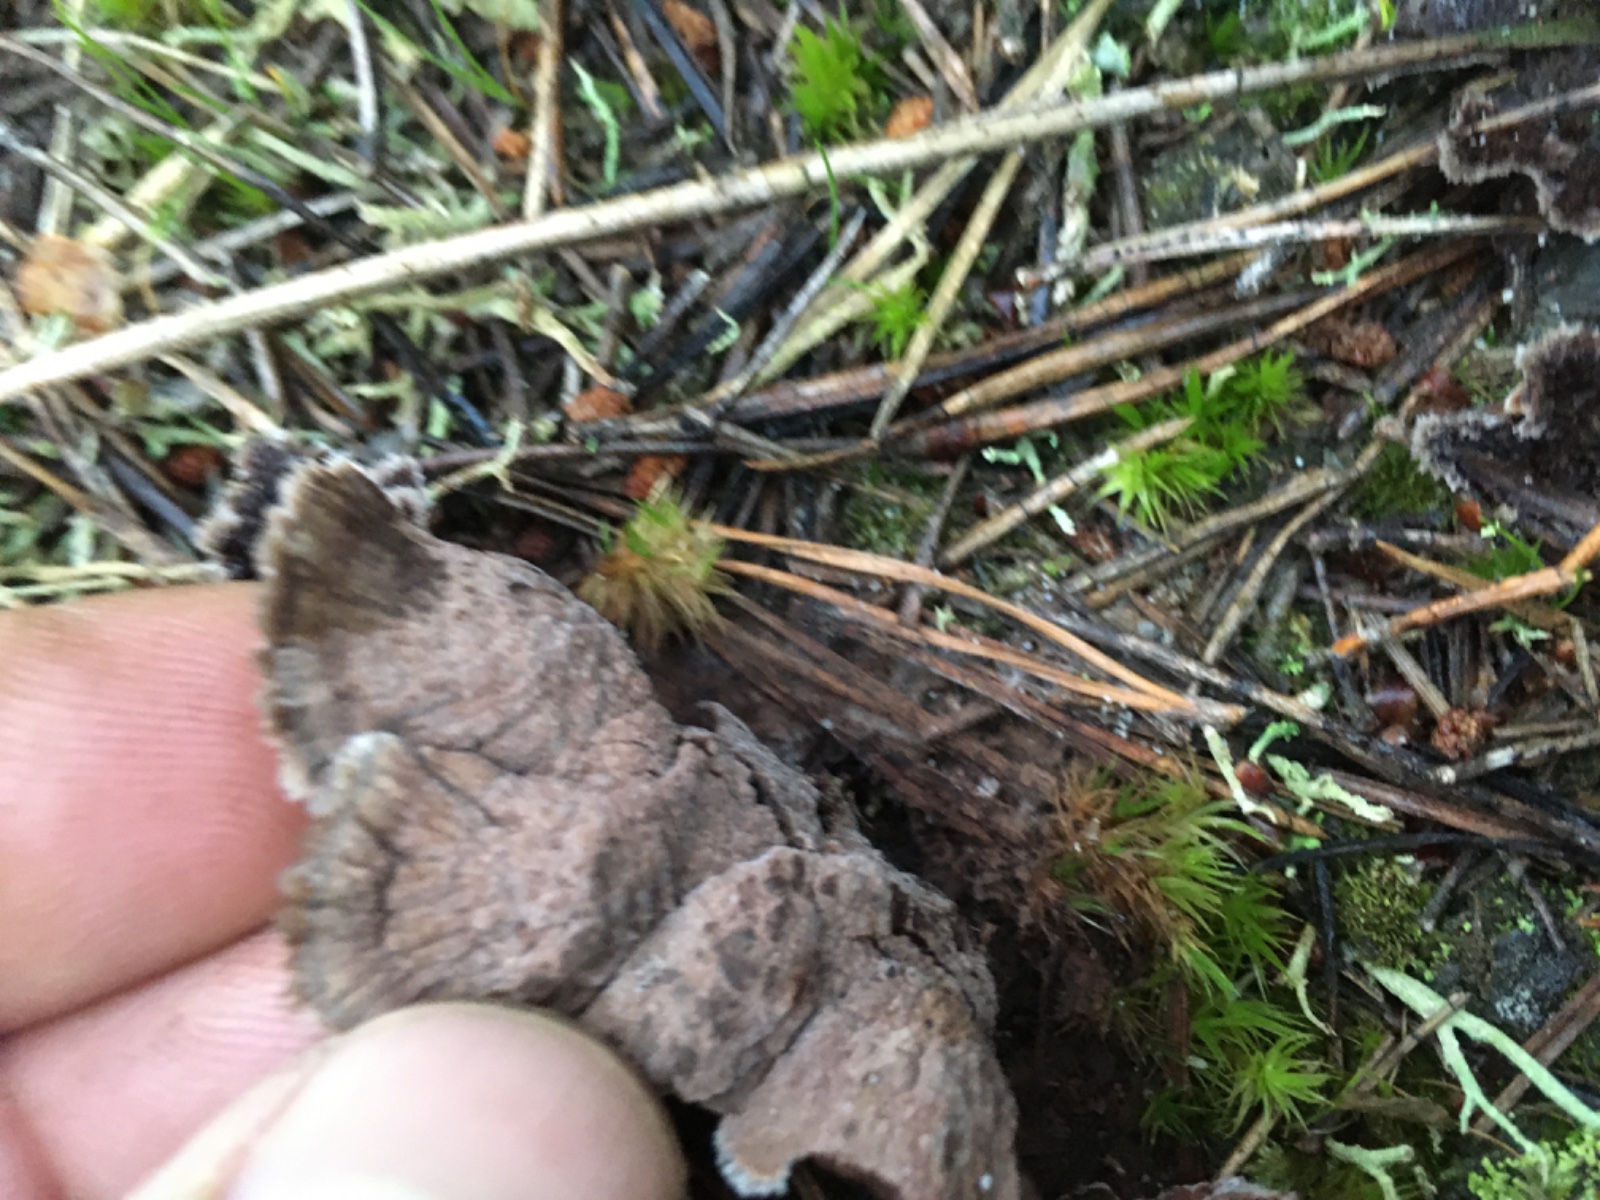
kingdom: Fungi
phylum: Basidiomycota
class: Agaricomycetes
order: Thelephorales
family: Thelephoraceae
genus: Thelephora
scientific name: Thelephora terrestris
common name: fliget frynsesvamp
